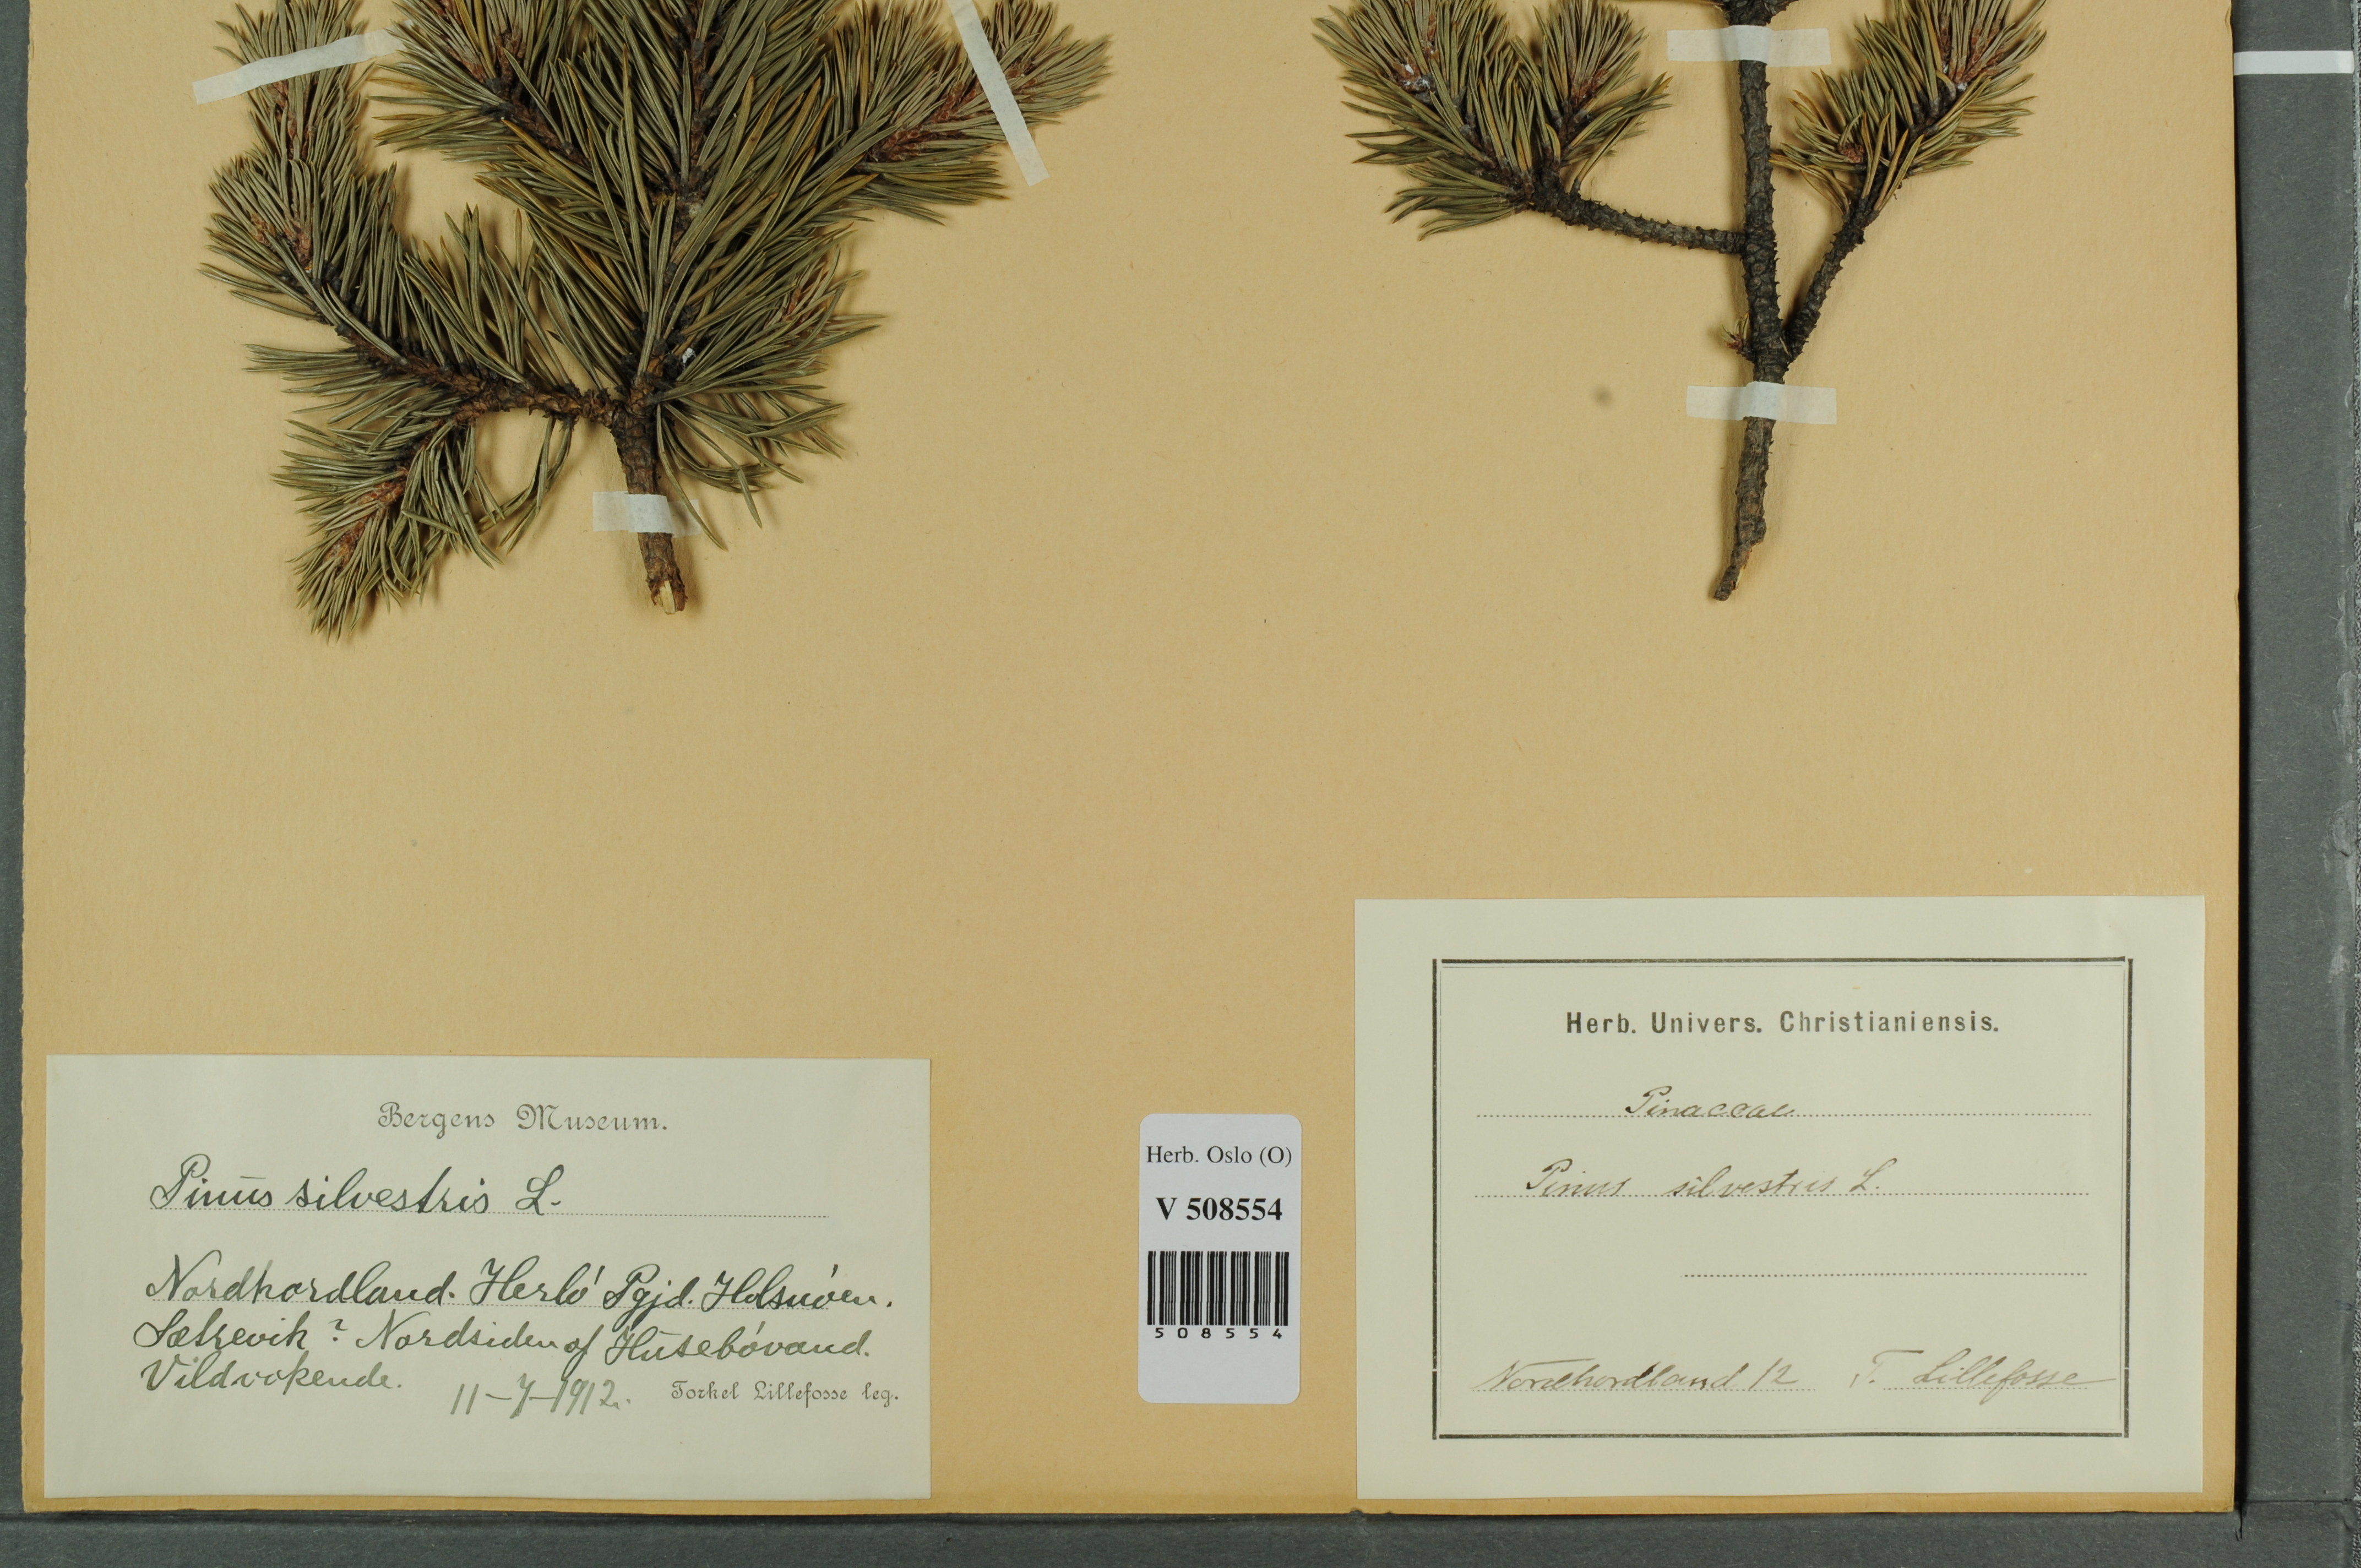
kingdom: Plantae
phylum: Tracheophyta
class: Pinopsida
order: Pinales
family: Pinaceae
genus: Pinus
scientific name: Pinus sylvestris
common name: Scots pine
